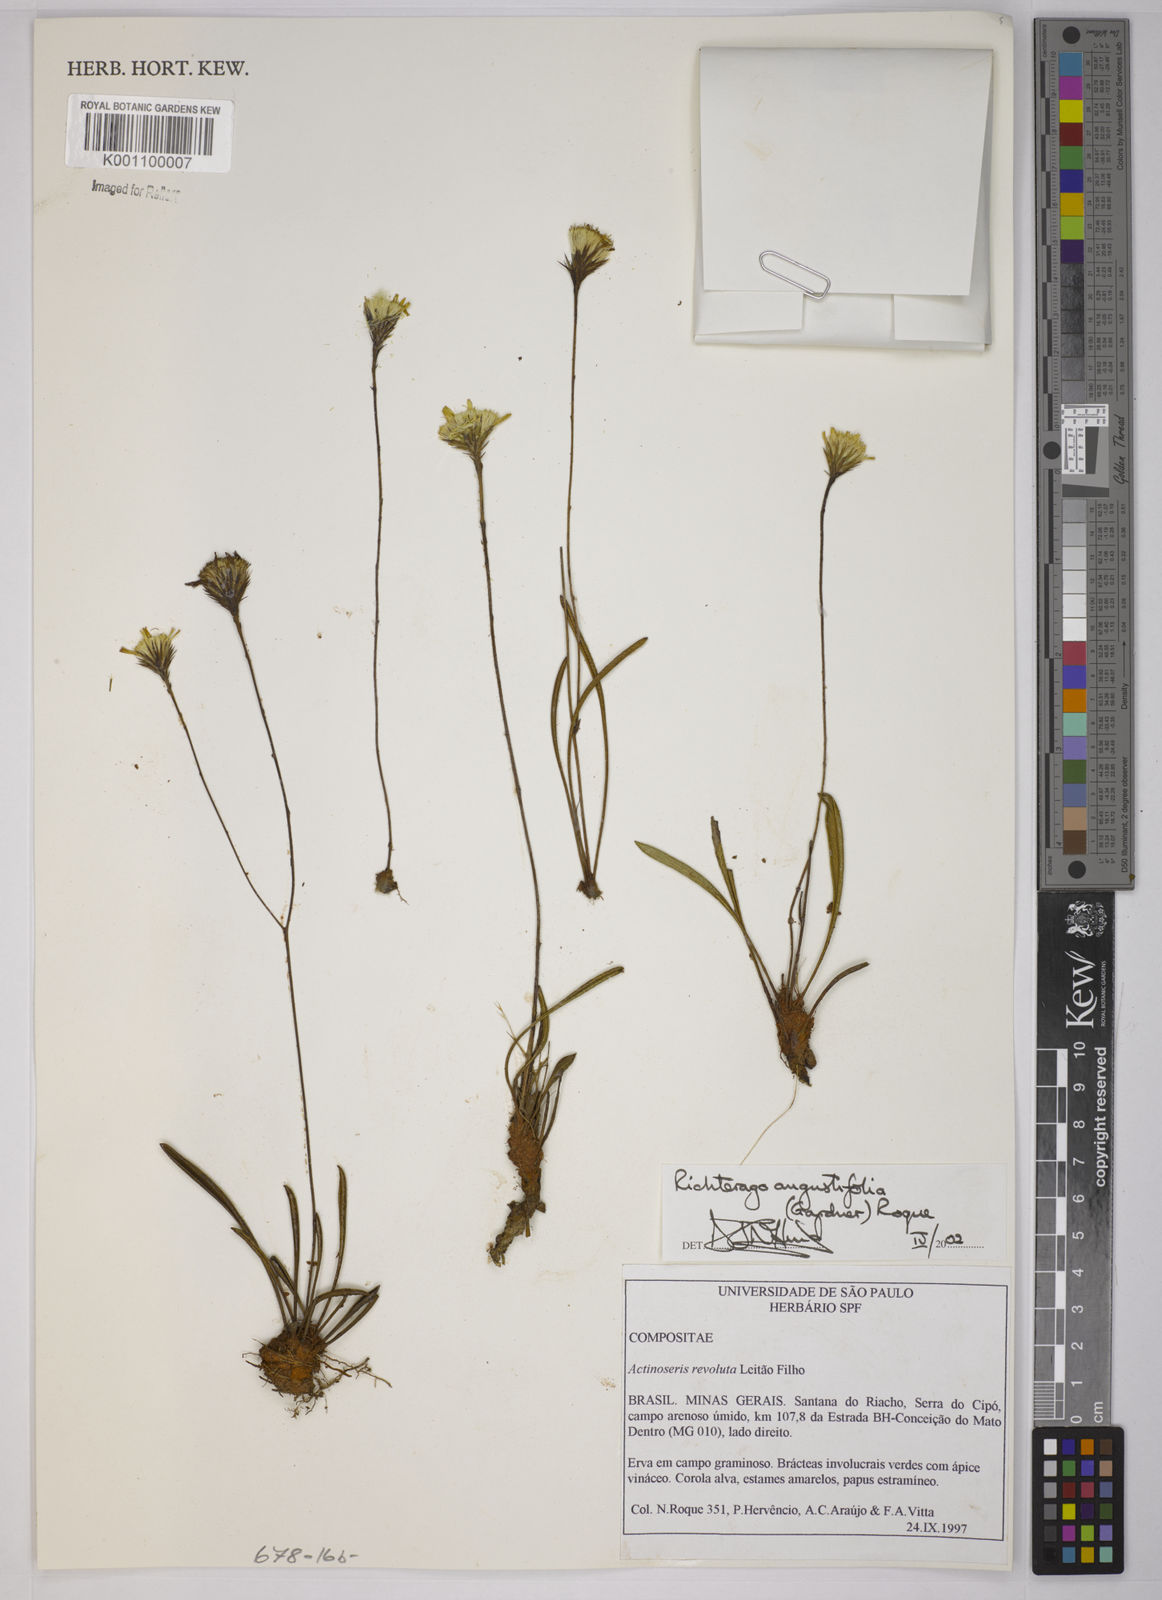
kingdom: Plantae
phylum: Tracheophyta
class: Magnoliopsida
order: Asterales
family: Asteraceae
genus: Richterago
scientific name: Richterago angustifolia
